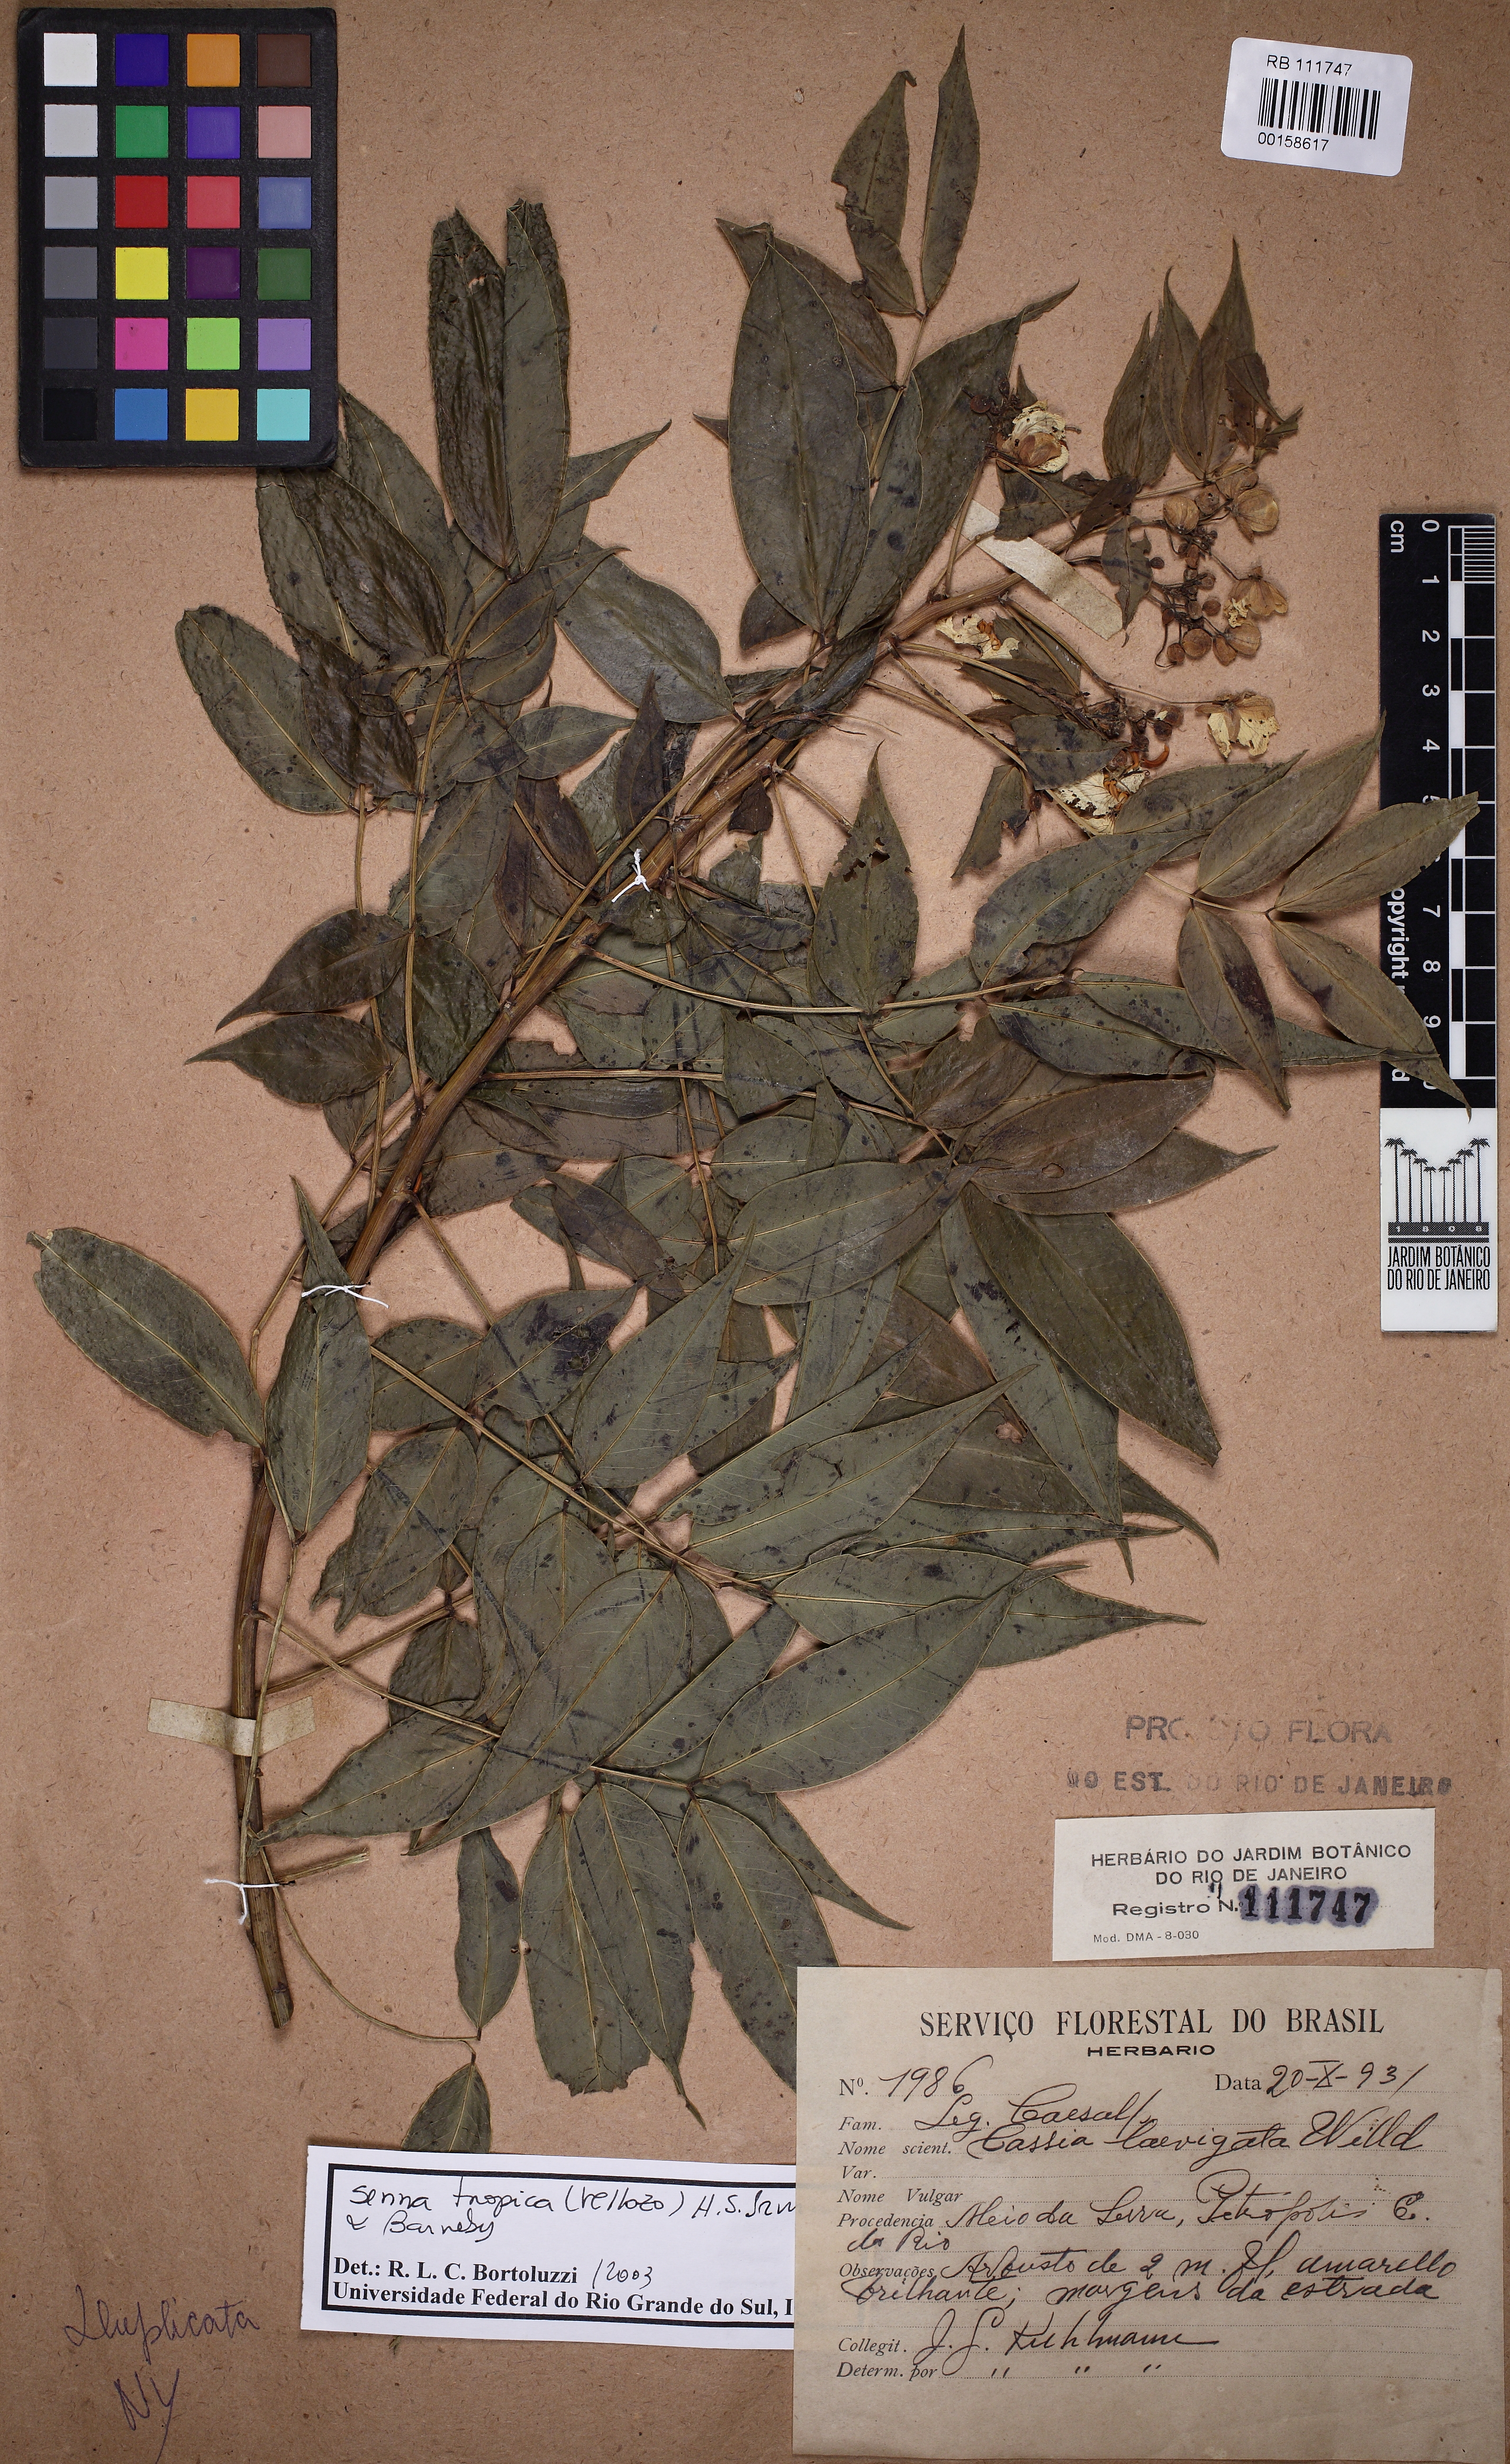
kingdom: Plantae
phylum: Tracheophyta
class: Magnoliopsida
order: Fabales
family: Fabaceae
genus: Senna
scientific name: Senna tropica
